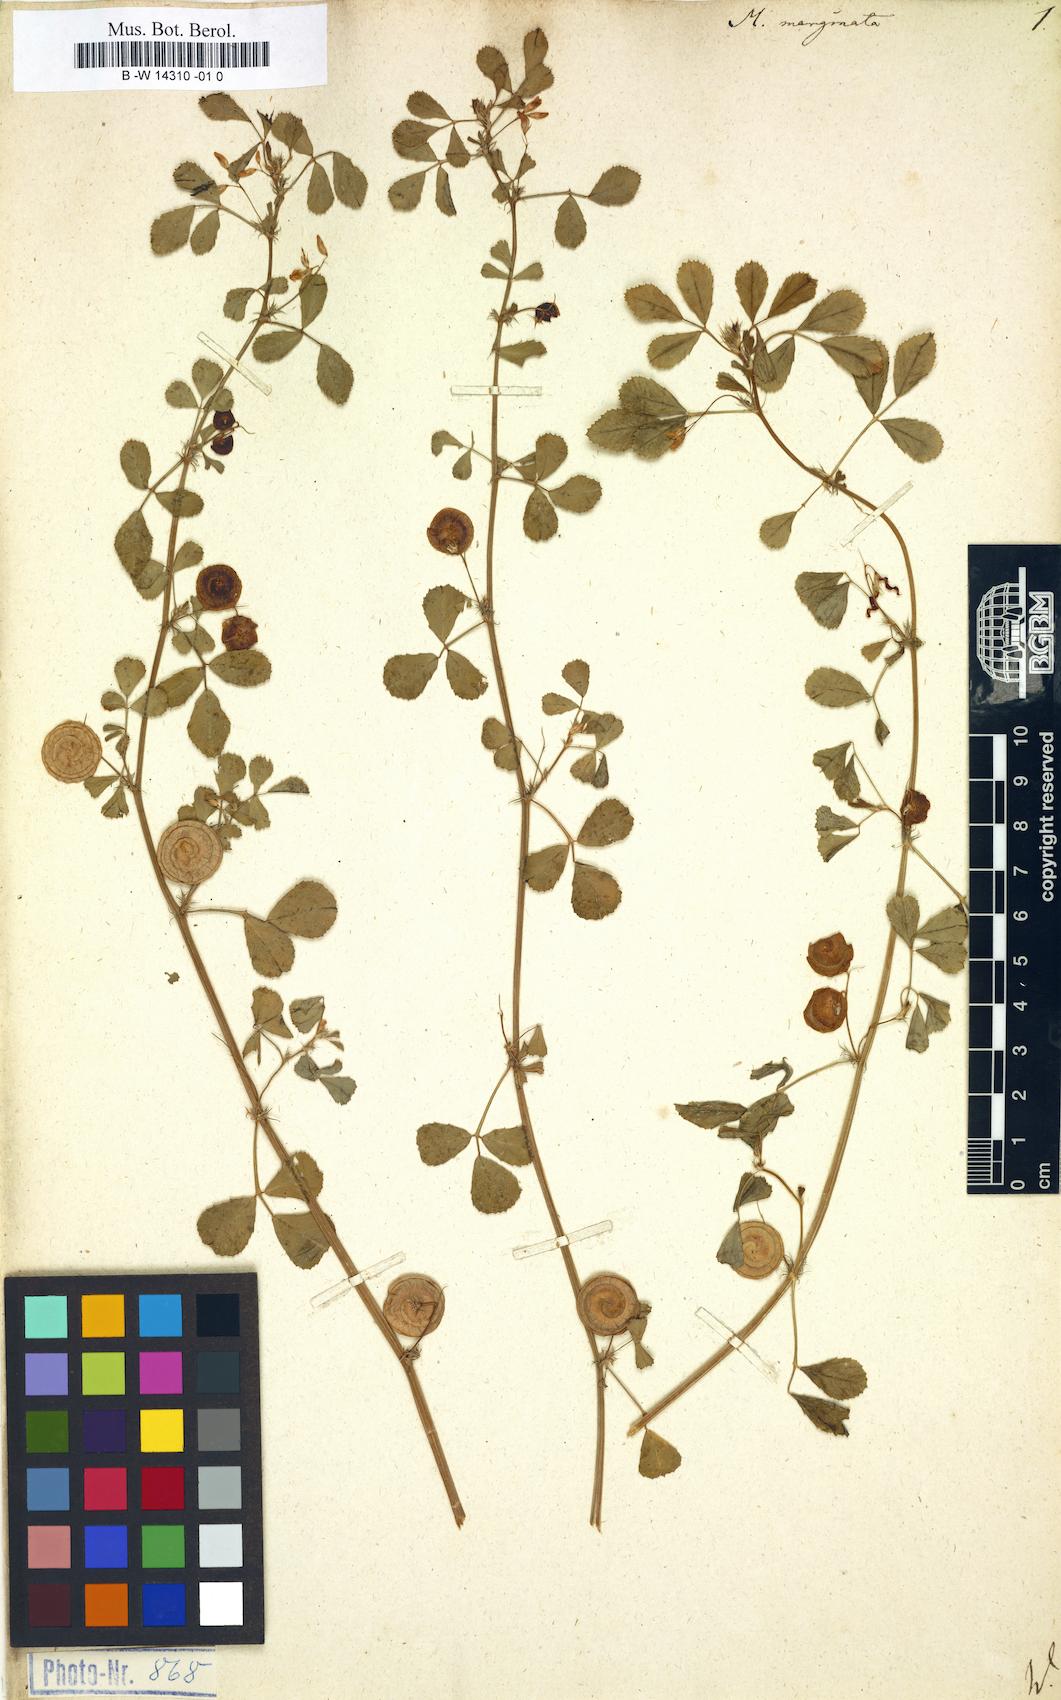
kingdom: Plantae
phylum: Tracheophyta
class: Magnoliopsida
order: Fabales
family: Fabaceae
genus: Medicago
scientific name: Medicago orbicularis
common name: Button medick
